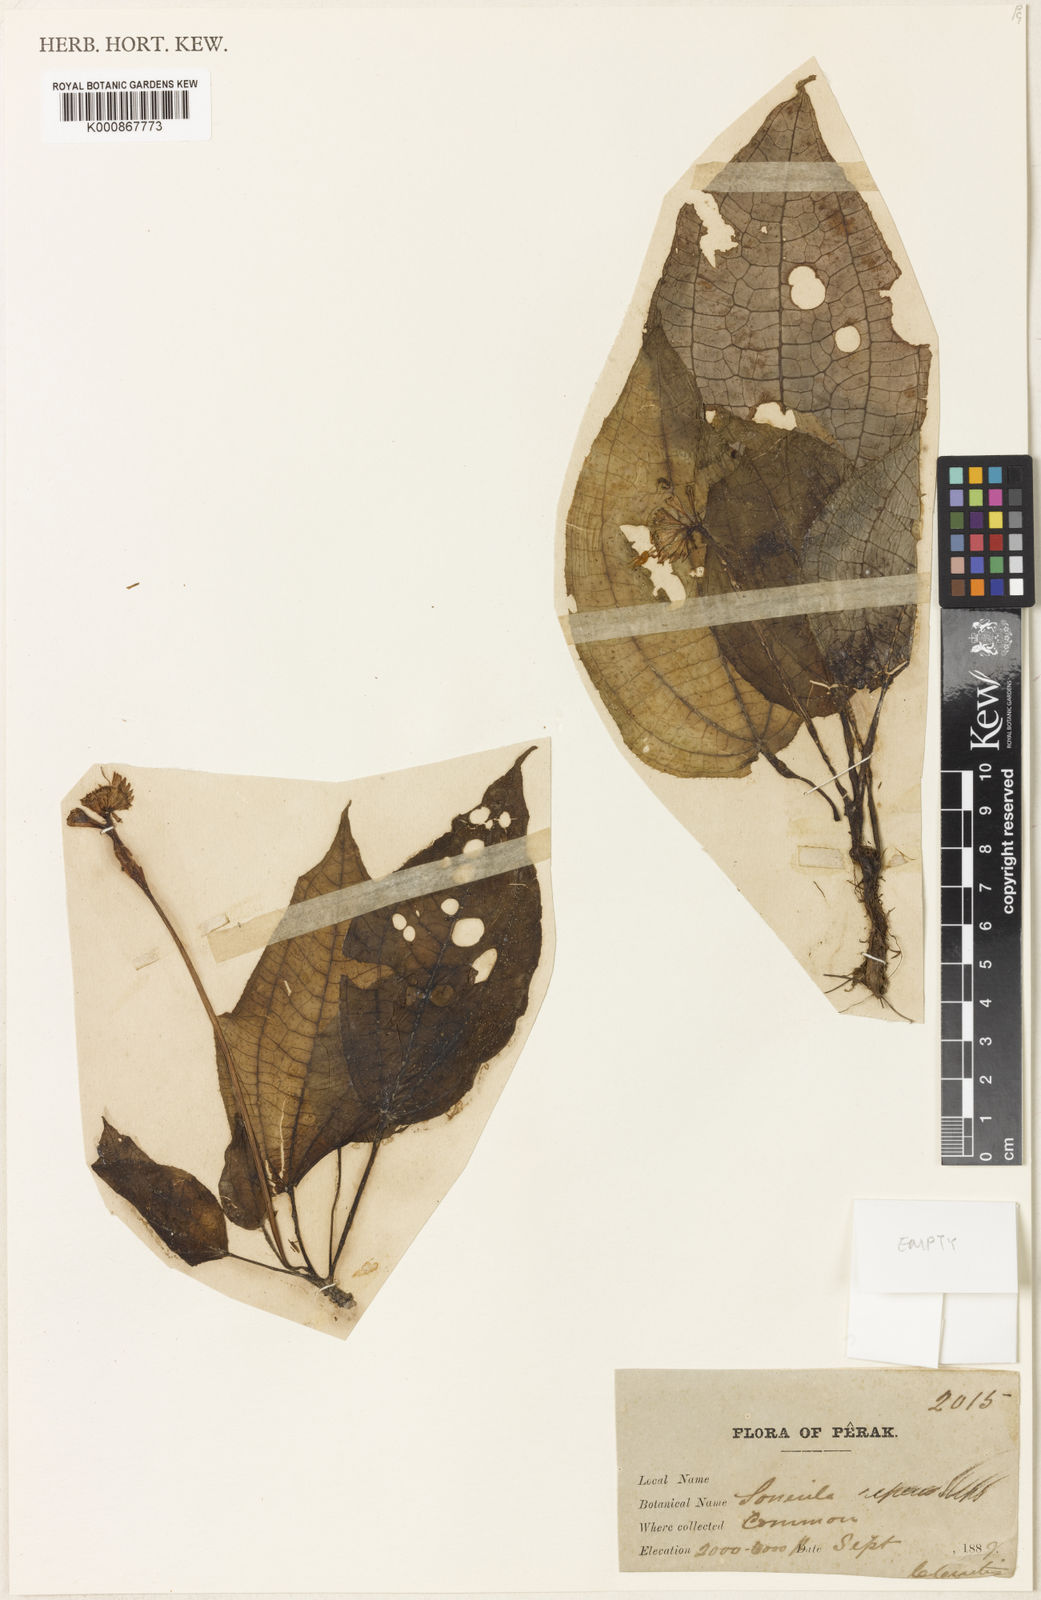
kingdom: Plantae
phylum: Tracheophyta
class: Magnoliopsida
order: Myrtales
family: Melastomataceae
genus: Sonerila
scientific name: Sonerila repens
